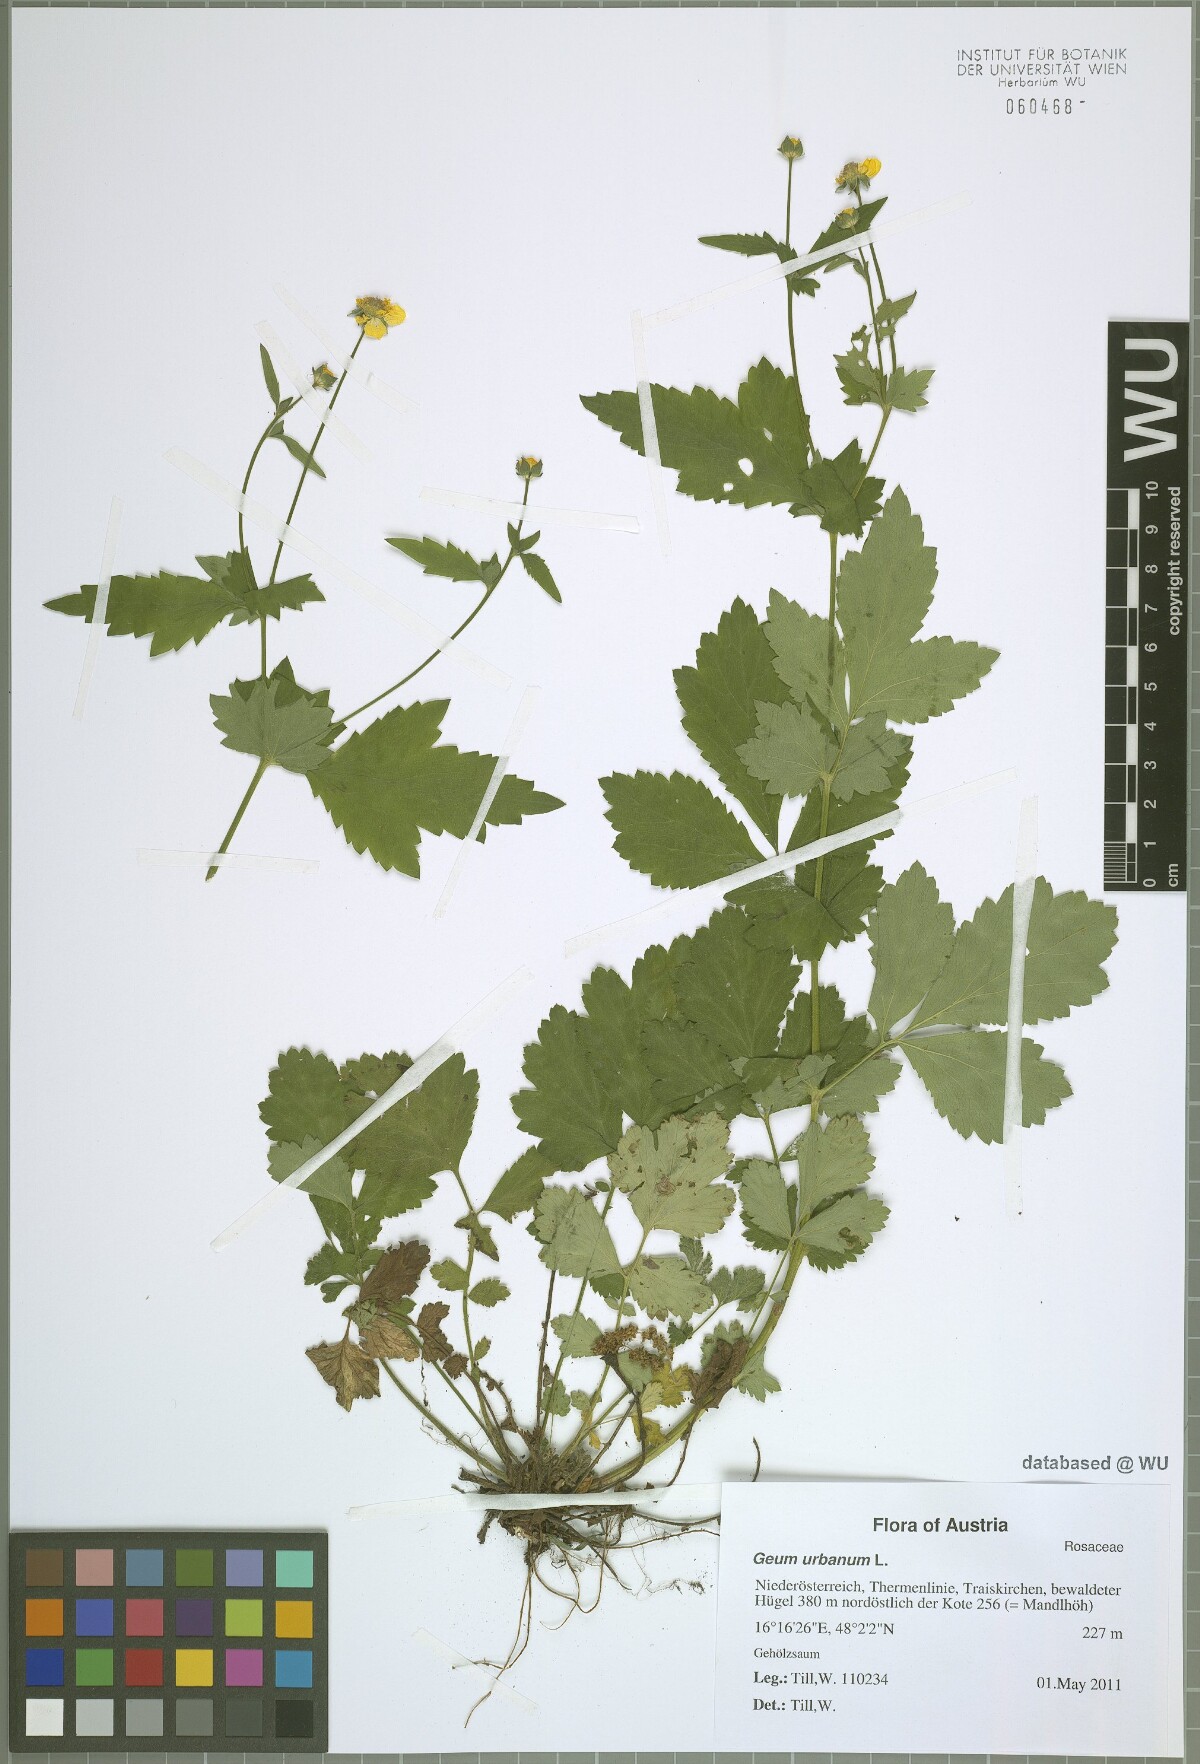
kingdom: Plantae
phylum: Tracheophyta
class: Magnoliopsida
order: Rosales
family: Rosaceae
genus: Geum
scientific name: Geum urbanum
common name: Wood avens
